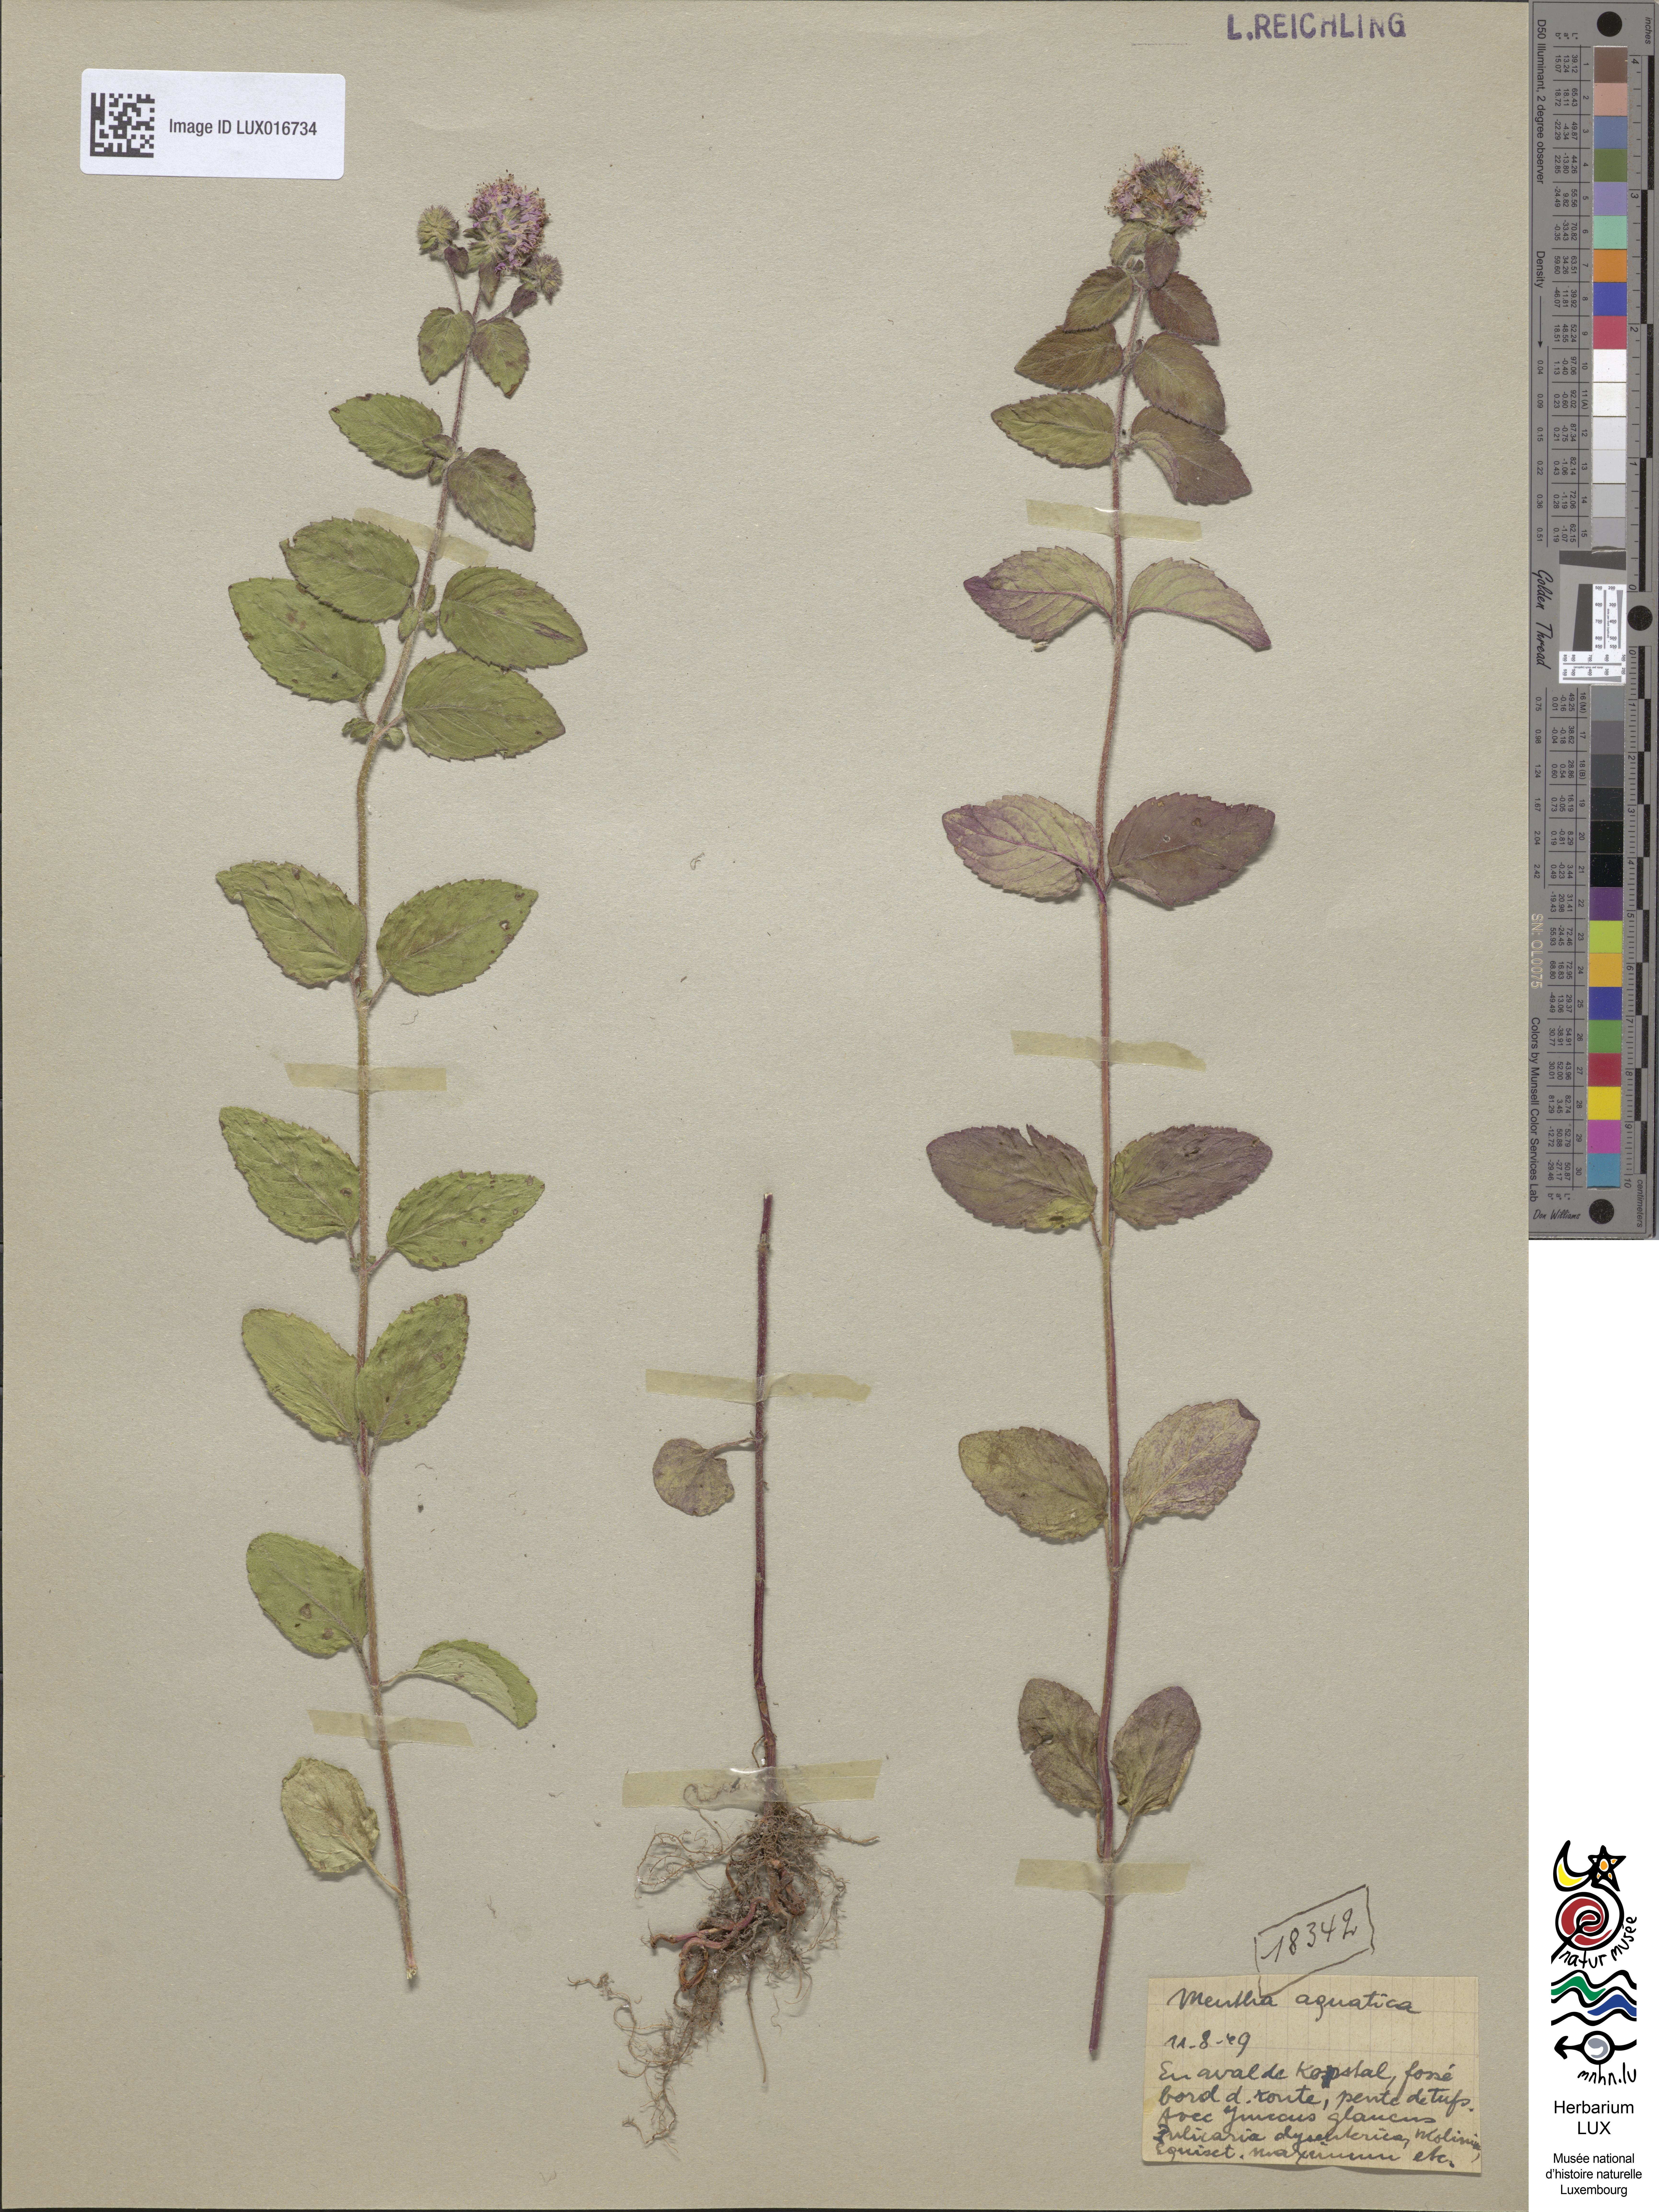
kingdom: Plantae
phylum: Tracheophyta
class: Magnoliopsida
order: Lamiales
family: Lamiaceae
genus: Mentha
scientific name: Mentha aquatica
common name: Water mint
